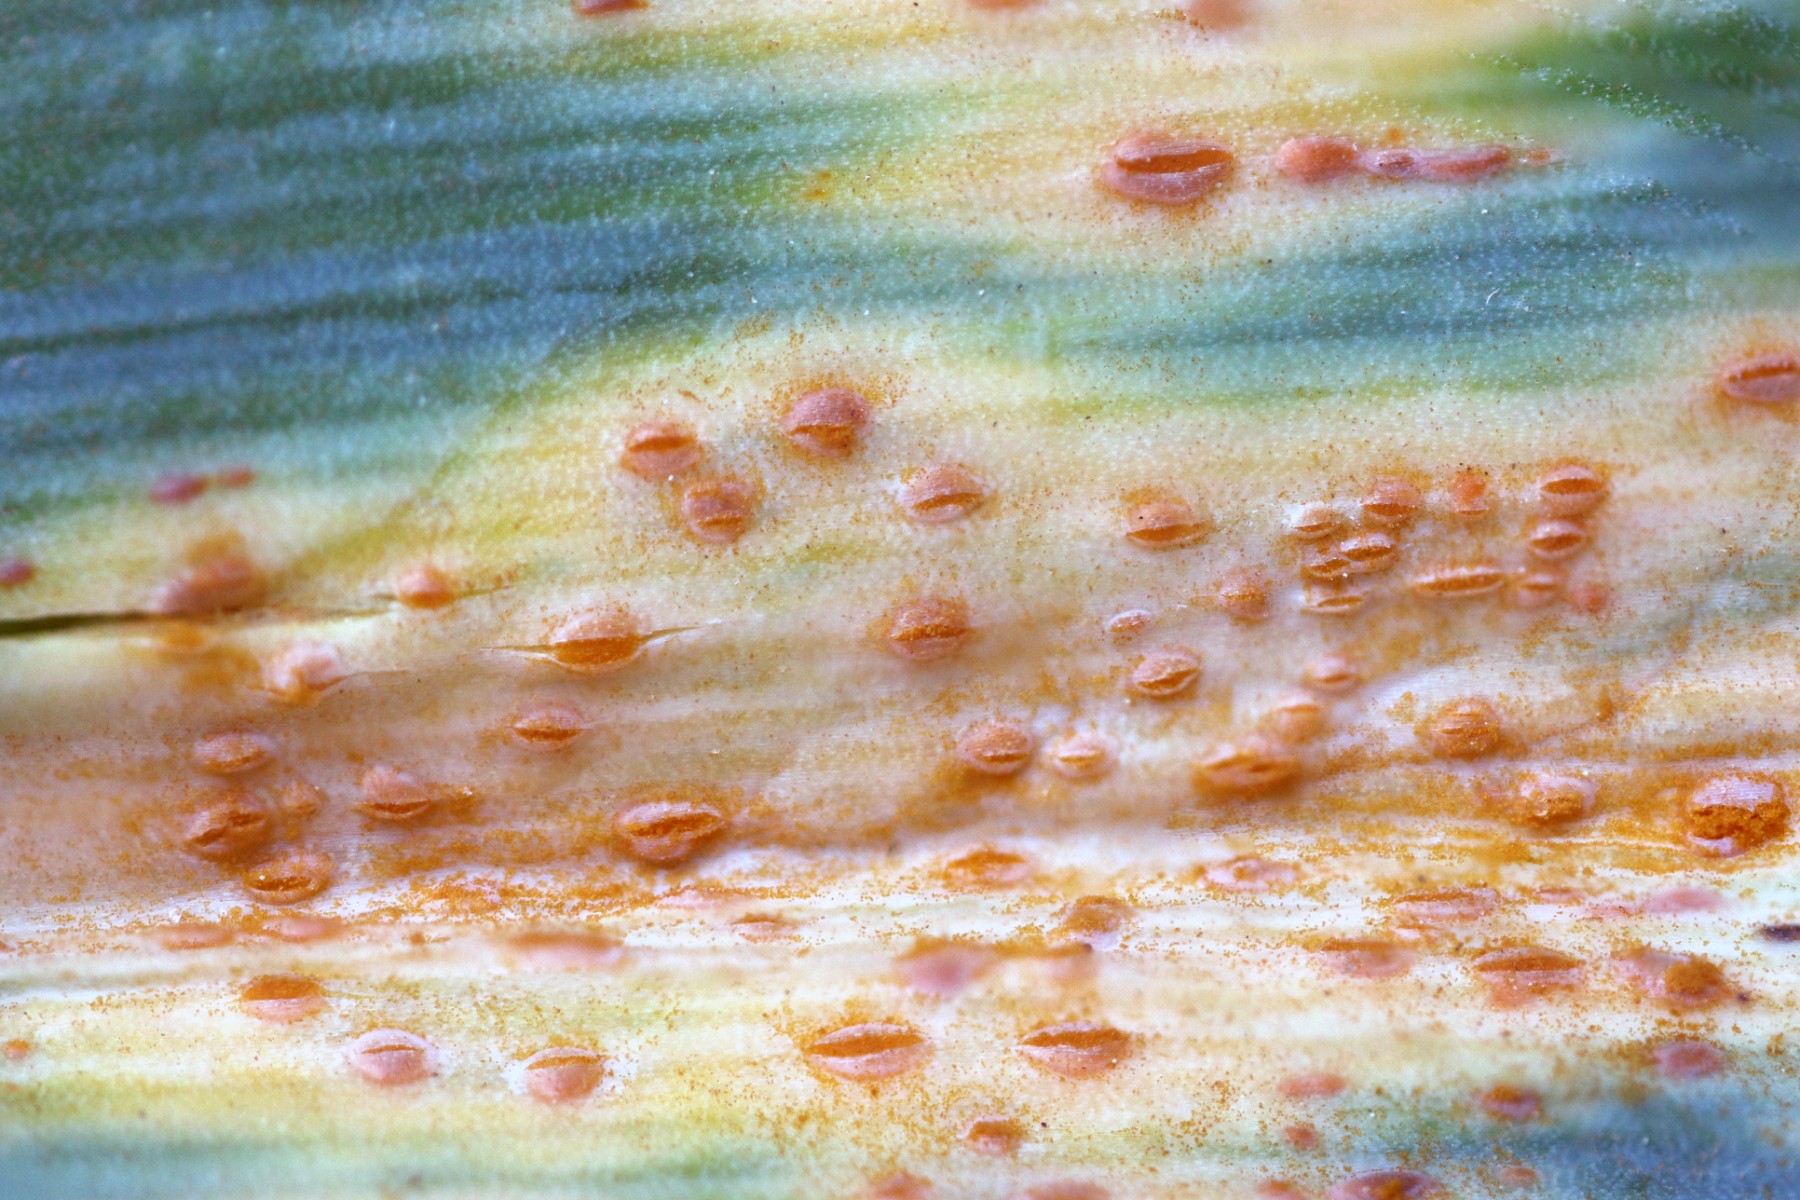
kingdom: Fungi
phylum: Basidiomycota
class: Pucciniomycetes
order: Pucciniales
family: Pucciniaceae
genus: Puccinia
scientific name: Puccinia porri
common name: Allium rust
